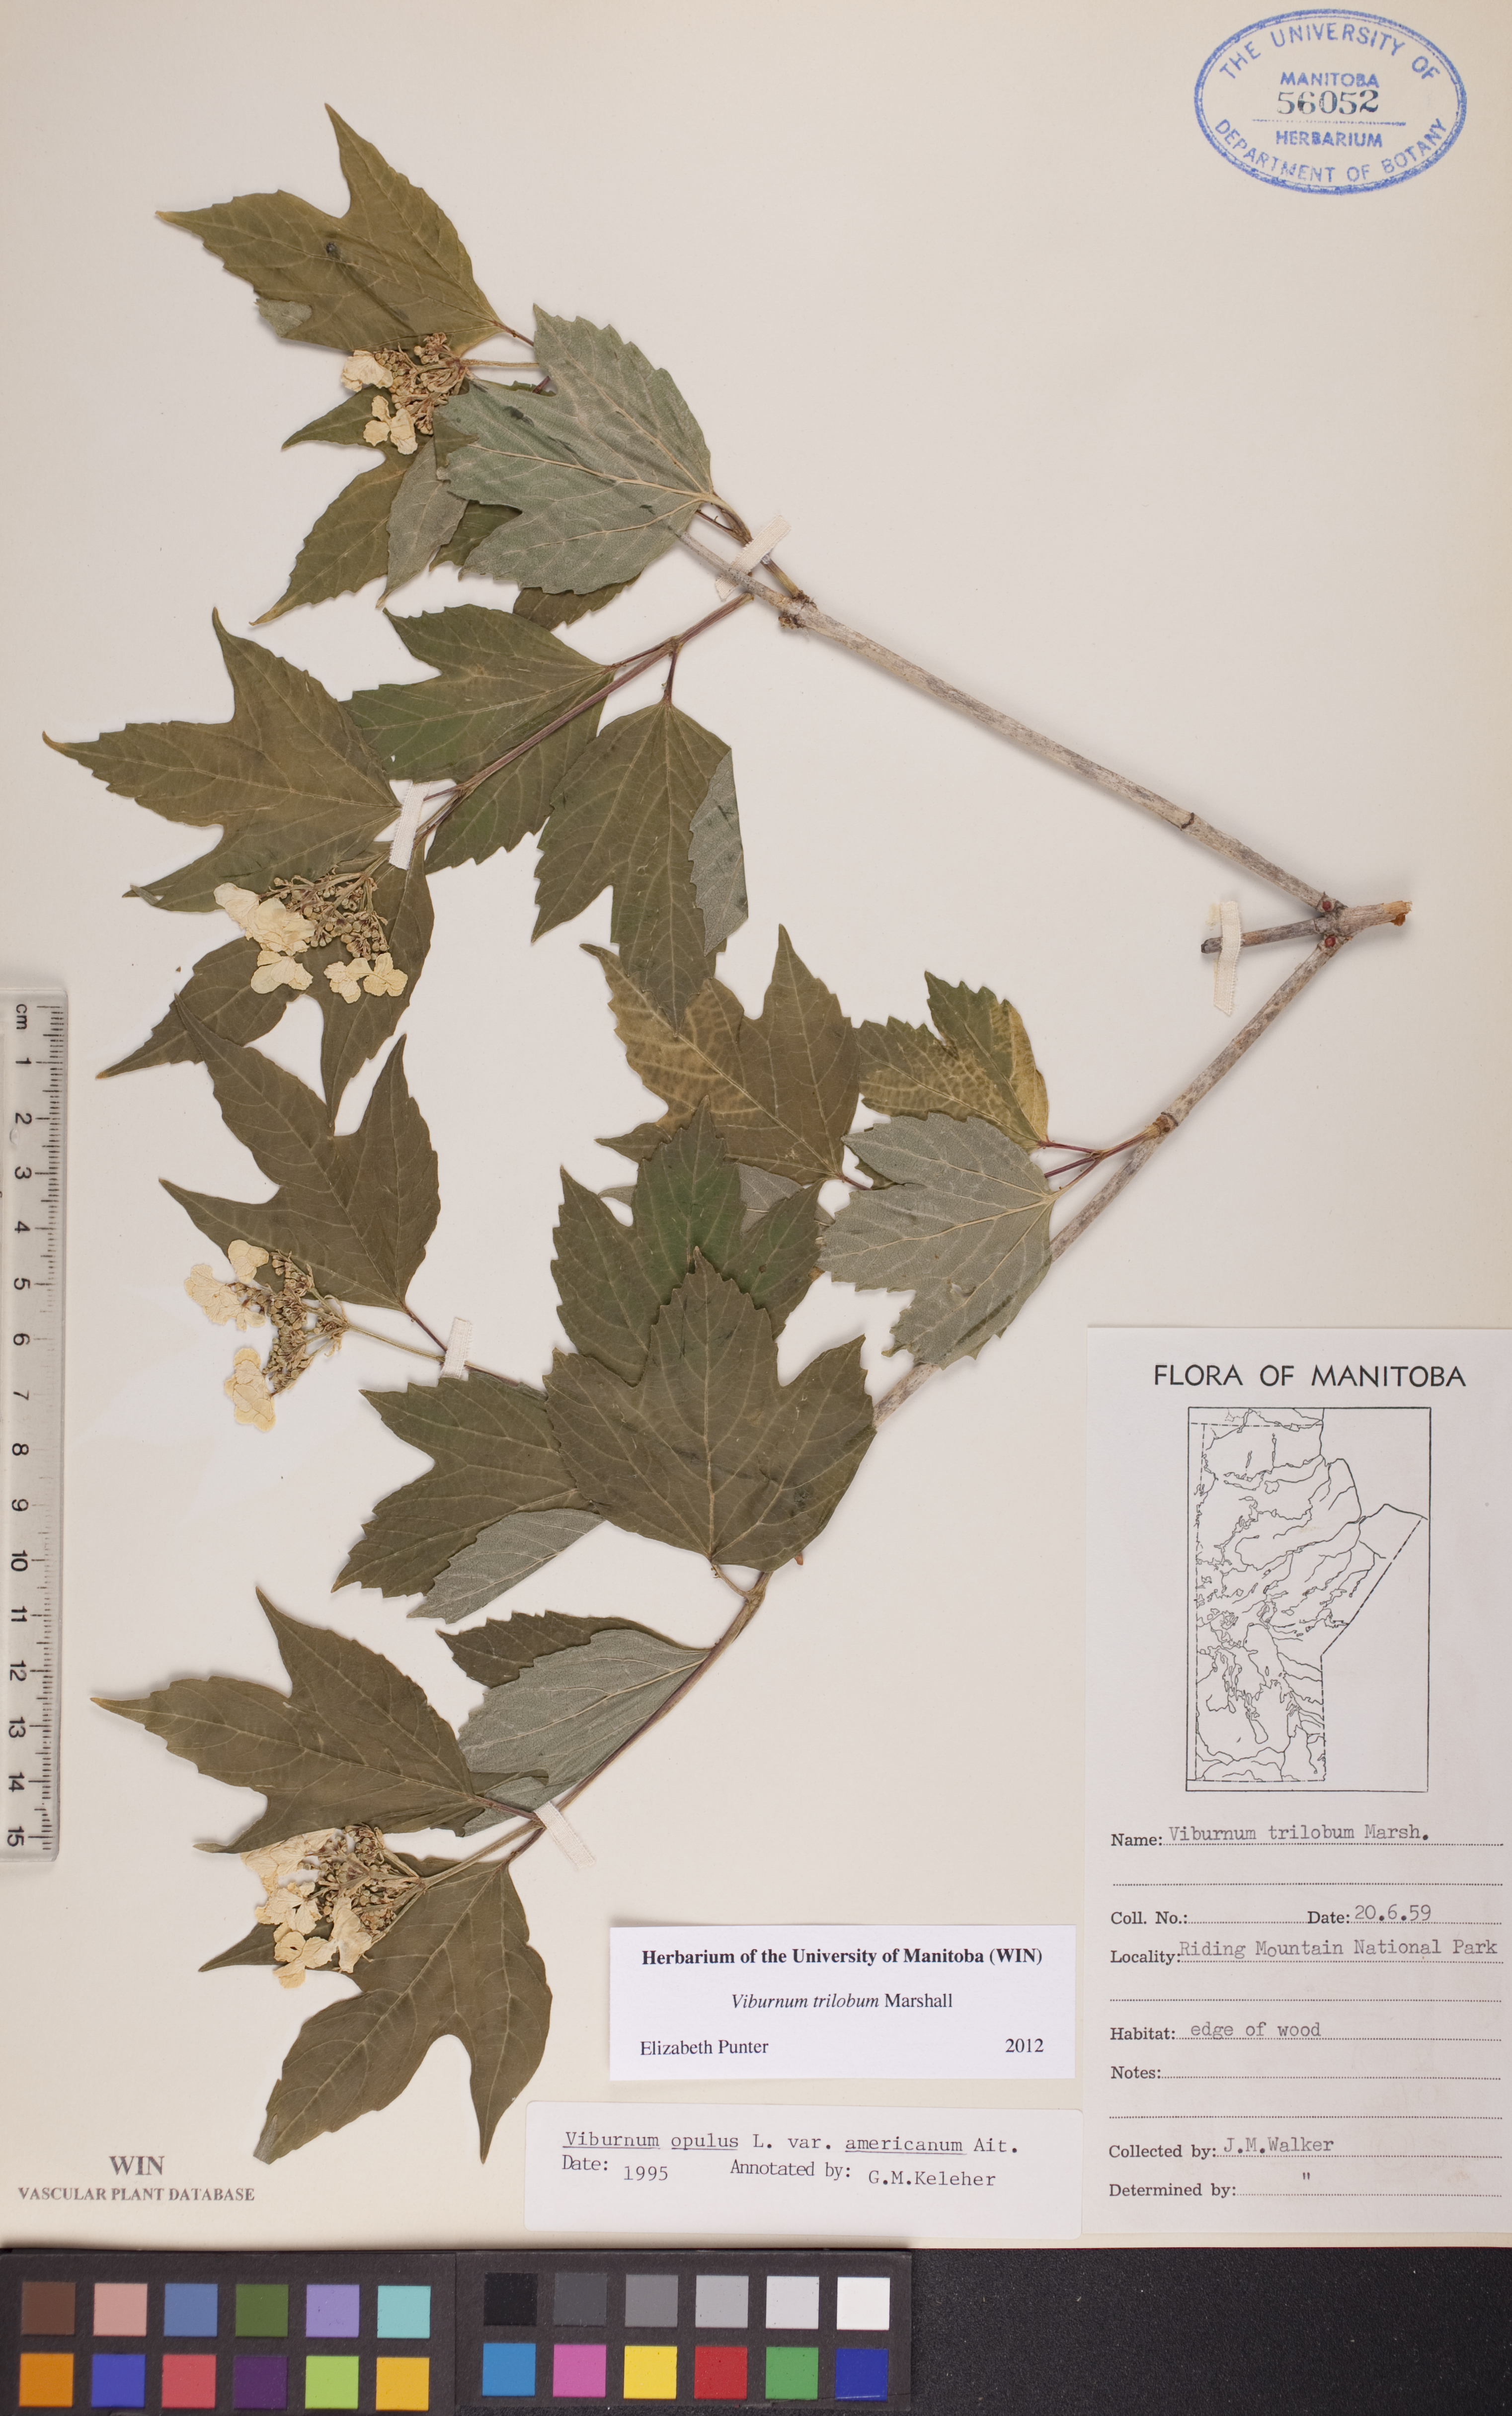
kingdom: Plantae
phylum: Tracheophyta
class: Magnoliopsida
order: Dipsacales
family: Viburnaceae
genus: Viburnum
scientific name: Viburnum trilobum
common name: American cranberrybush
